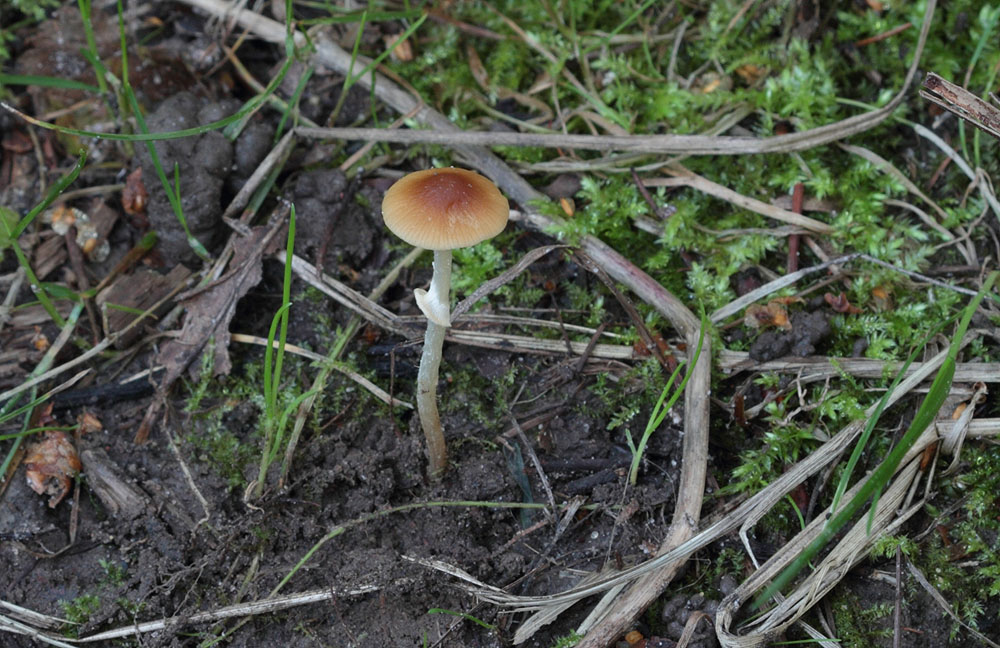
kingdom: Fungi
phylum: Basidiomycota
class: Agaricomycetes
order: Agaricales
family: Bolbitiaceae
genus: Conocybe
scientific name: Conocybe arrhenii
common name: ring-dansehat
